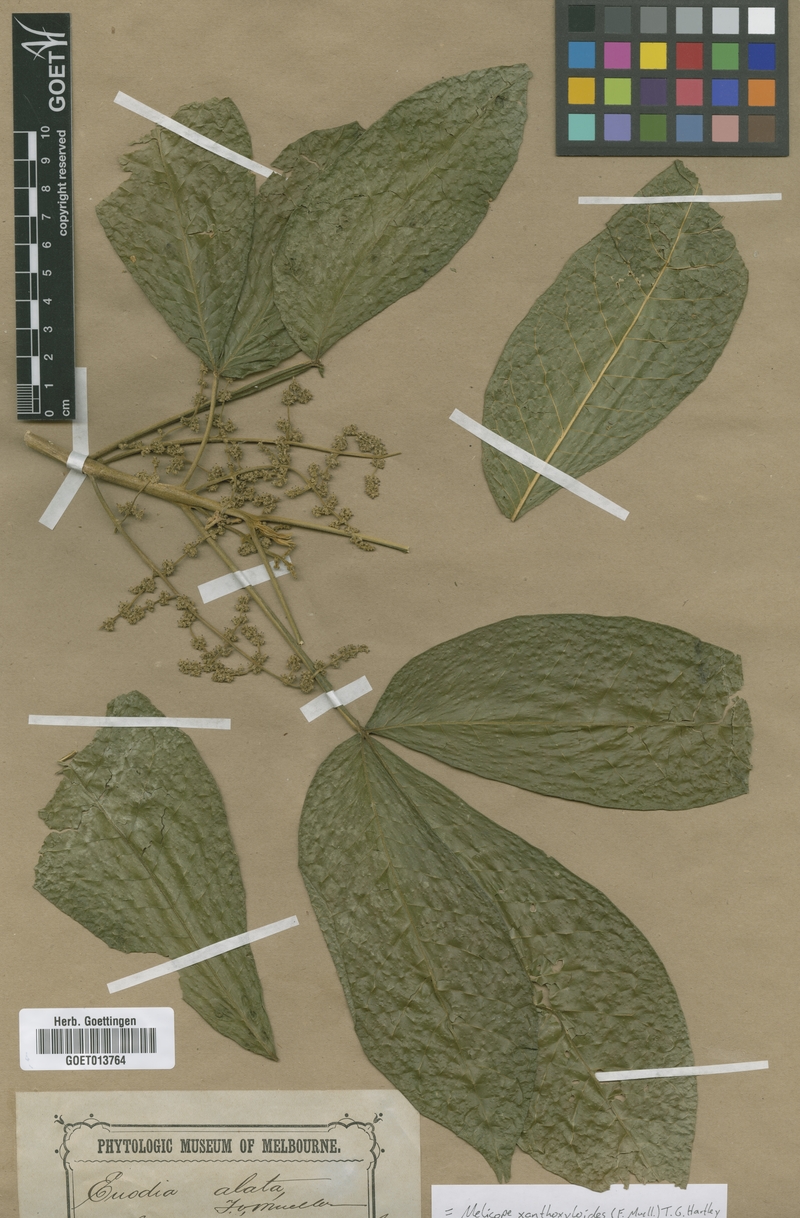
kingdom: Plantae
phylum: Tracheophyta
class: Magnoliopsida
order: Sapindales
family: Rutaceae
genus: Melicope
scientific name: Melicope xanthoxyloides
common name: Yellow evodia
